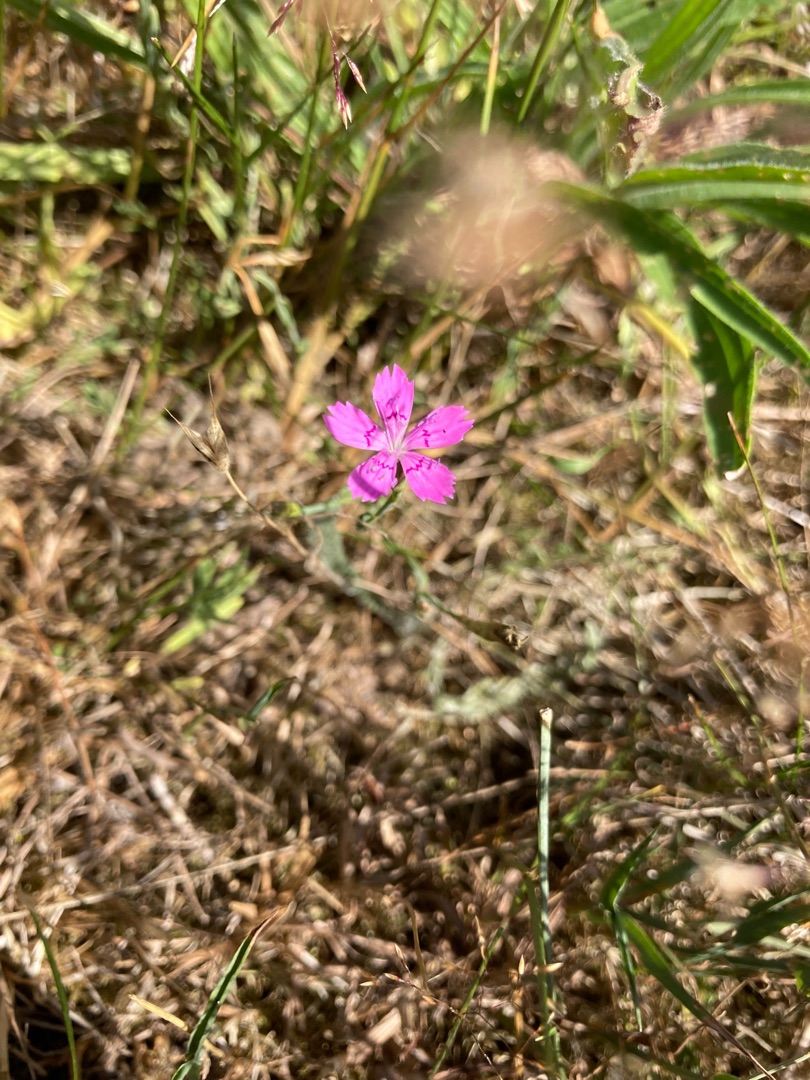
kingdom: Plantae
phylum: Tracheophyta
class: Magnoliopsida
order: Caryophyllales
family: Caryophyllaceae
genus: Dianthus
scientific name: Dianthus deltoides
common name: Bakke-nellike
